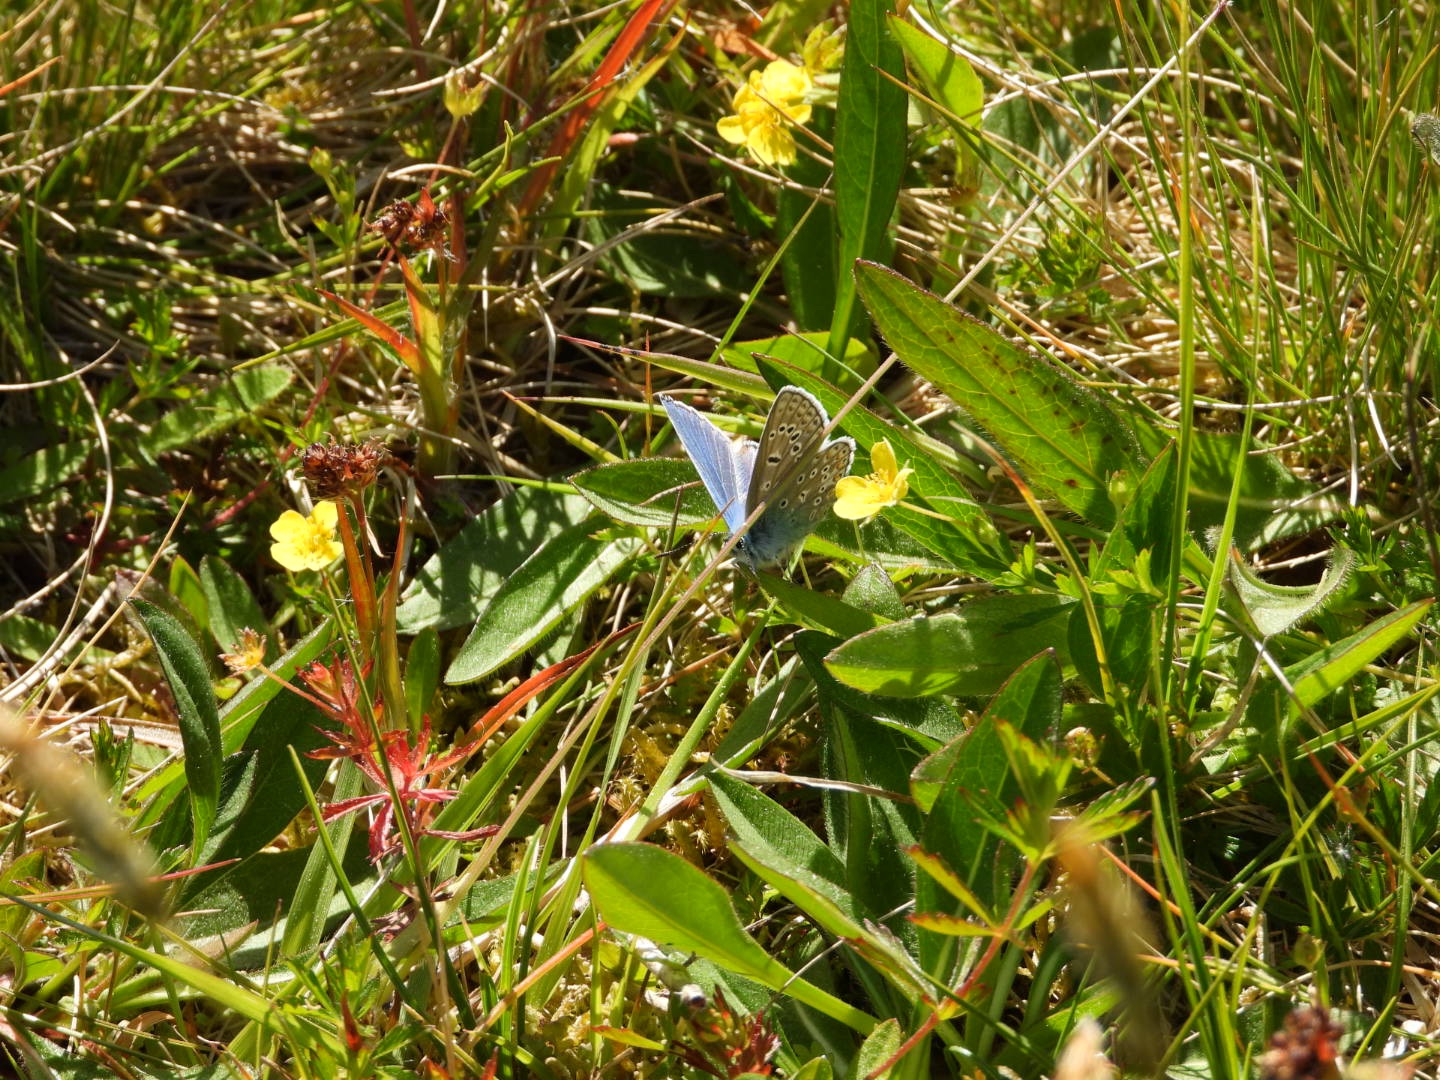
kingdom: Animalia
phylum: Arthropoda
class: Insecta
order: Lepidoptera
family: Lycaenidae
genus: Polyommatus
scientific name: Polyommatus icarus
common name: Almindelig blåfugl
